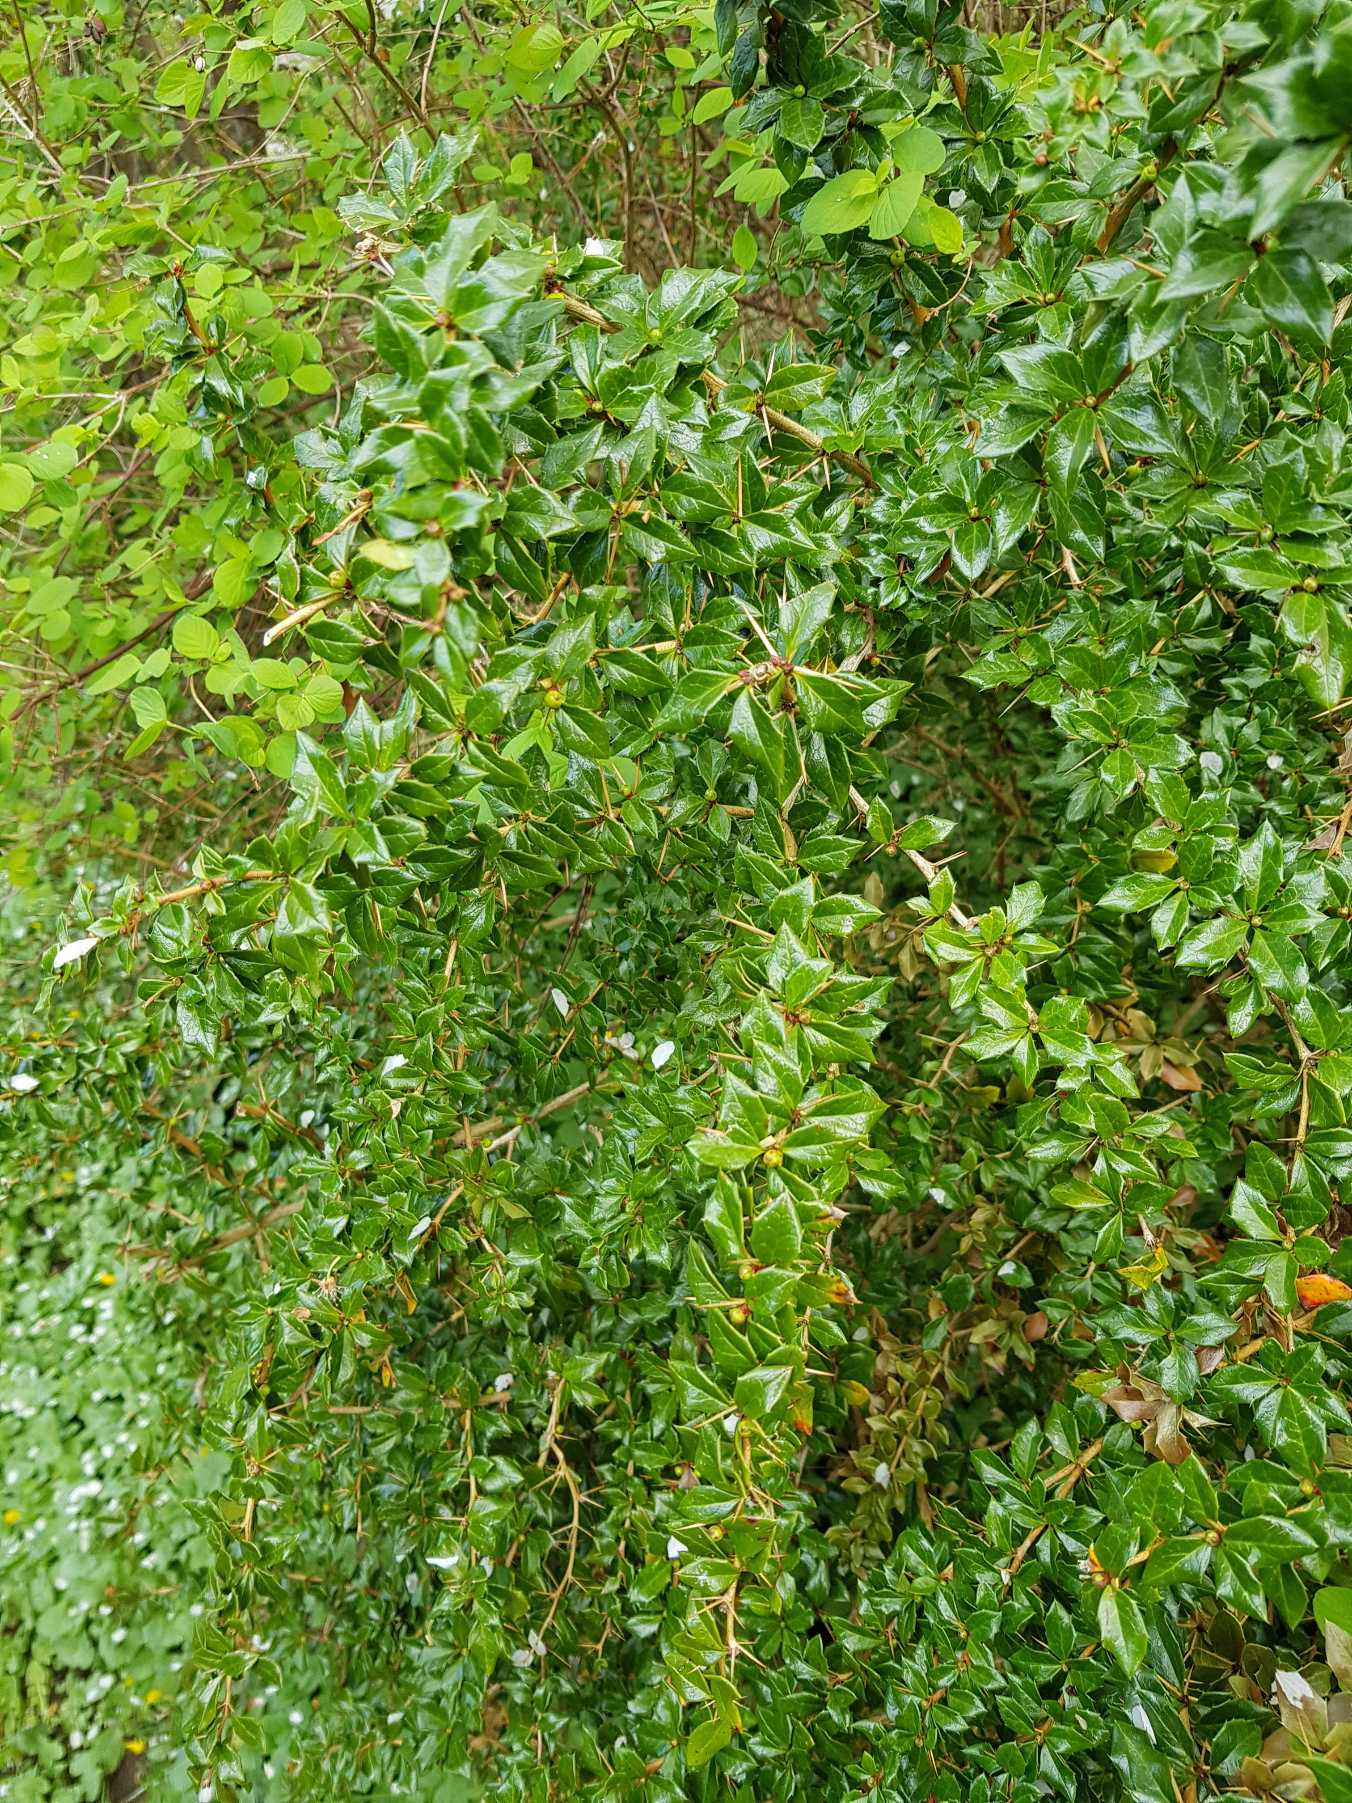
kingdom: Plantae
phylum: Tracheophyta
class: Magnoliopsida
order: Ranunculales
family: Berberidaceae
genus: Berberis
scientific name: Berberis verruculosa
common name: Finvortet surtorn
